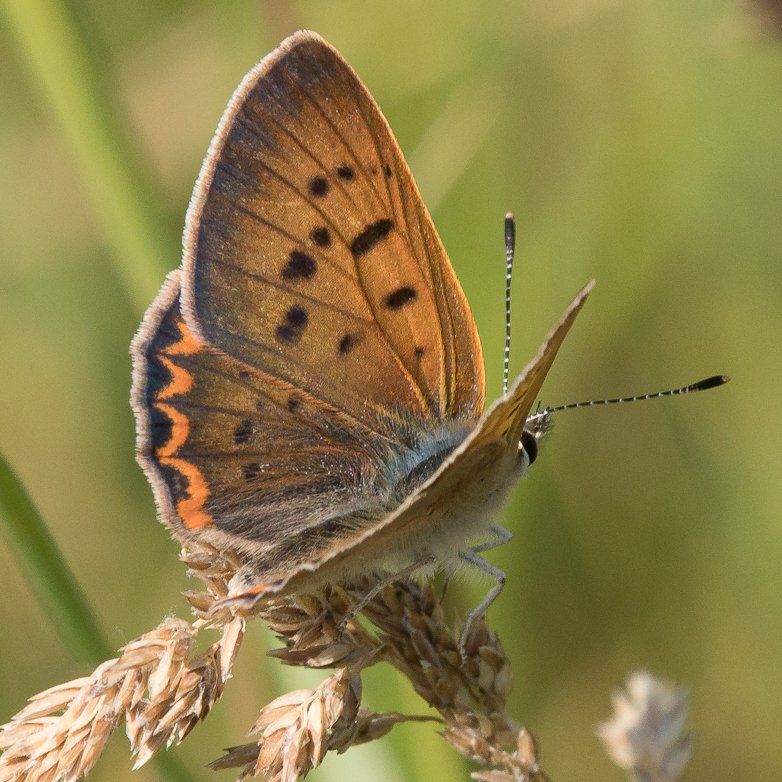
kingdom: Animalia
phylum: Arthropoda
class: Insecta
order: Lepidoptera
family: Sesiidae
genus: Sesia
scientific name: Sesia Lycaena helloides
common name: Purplish Copper
